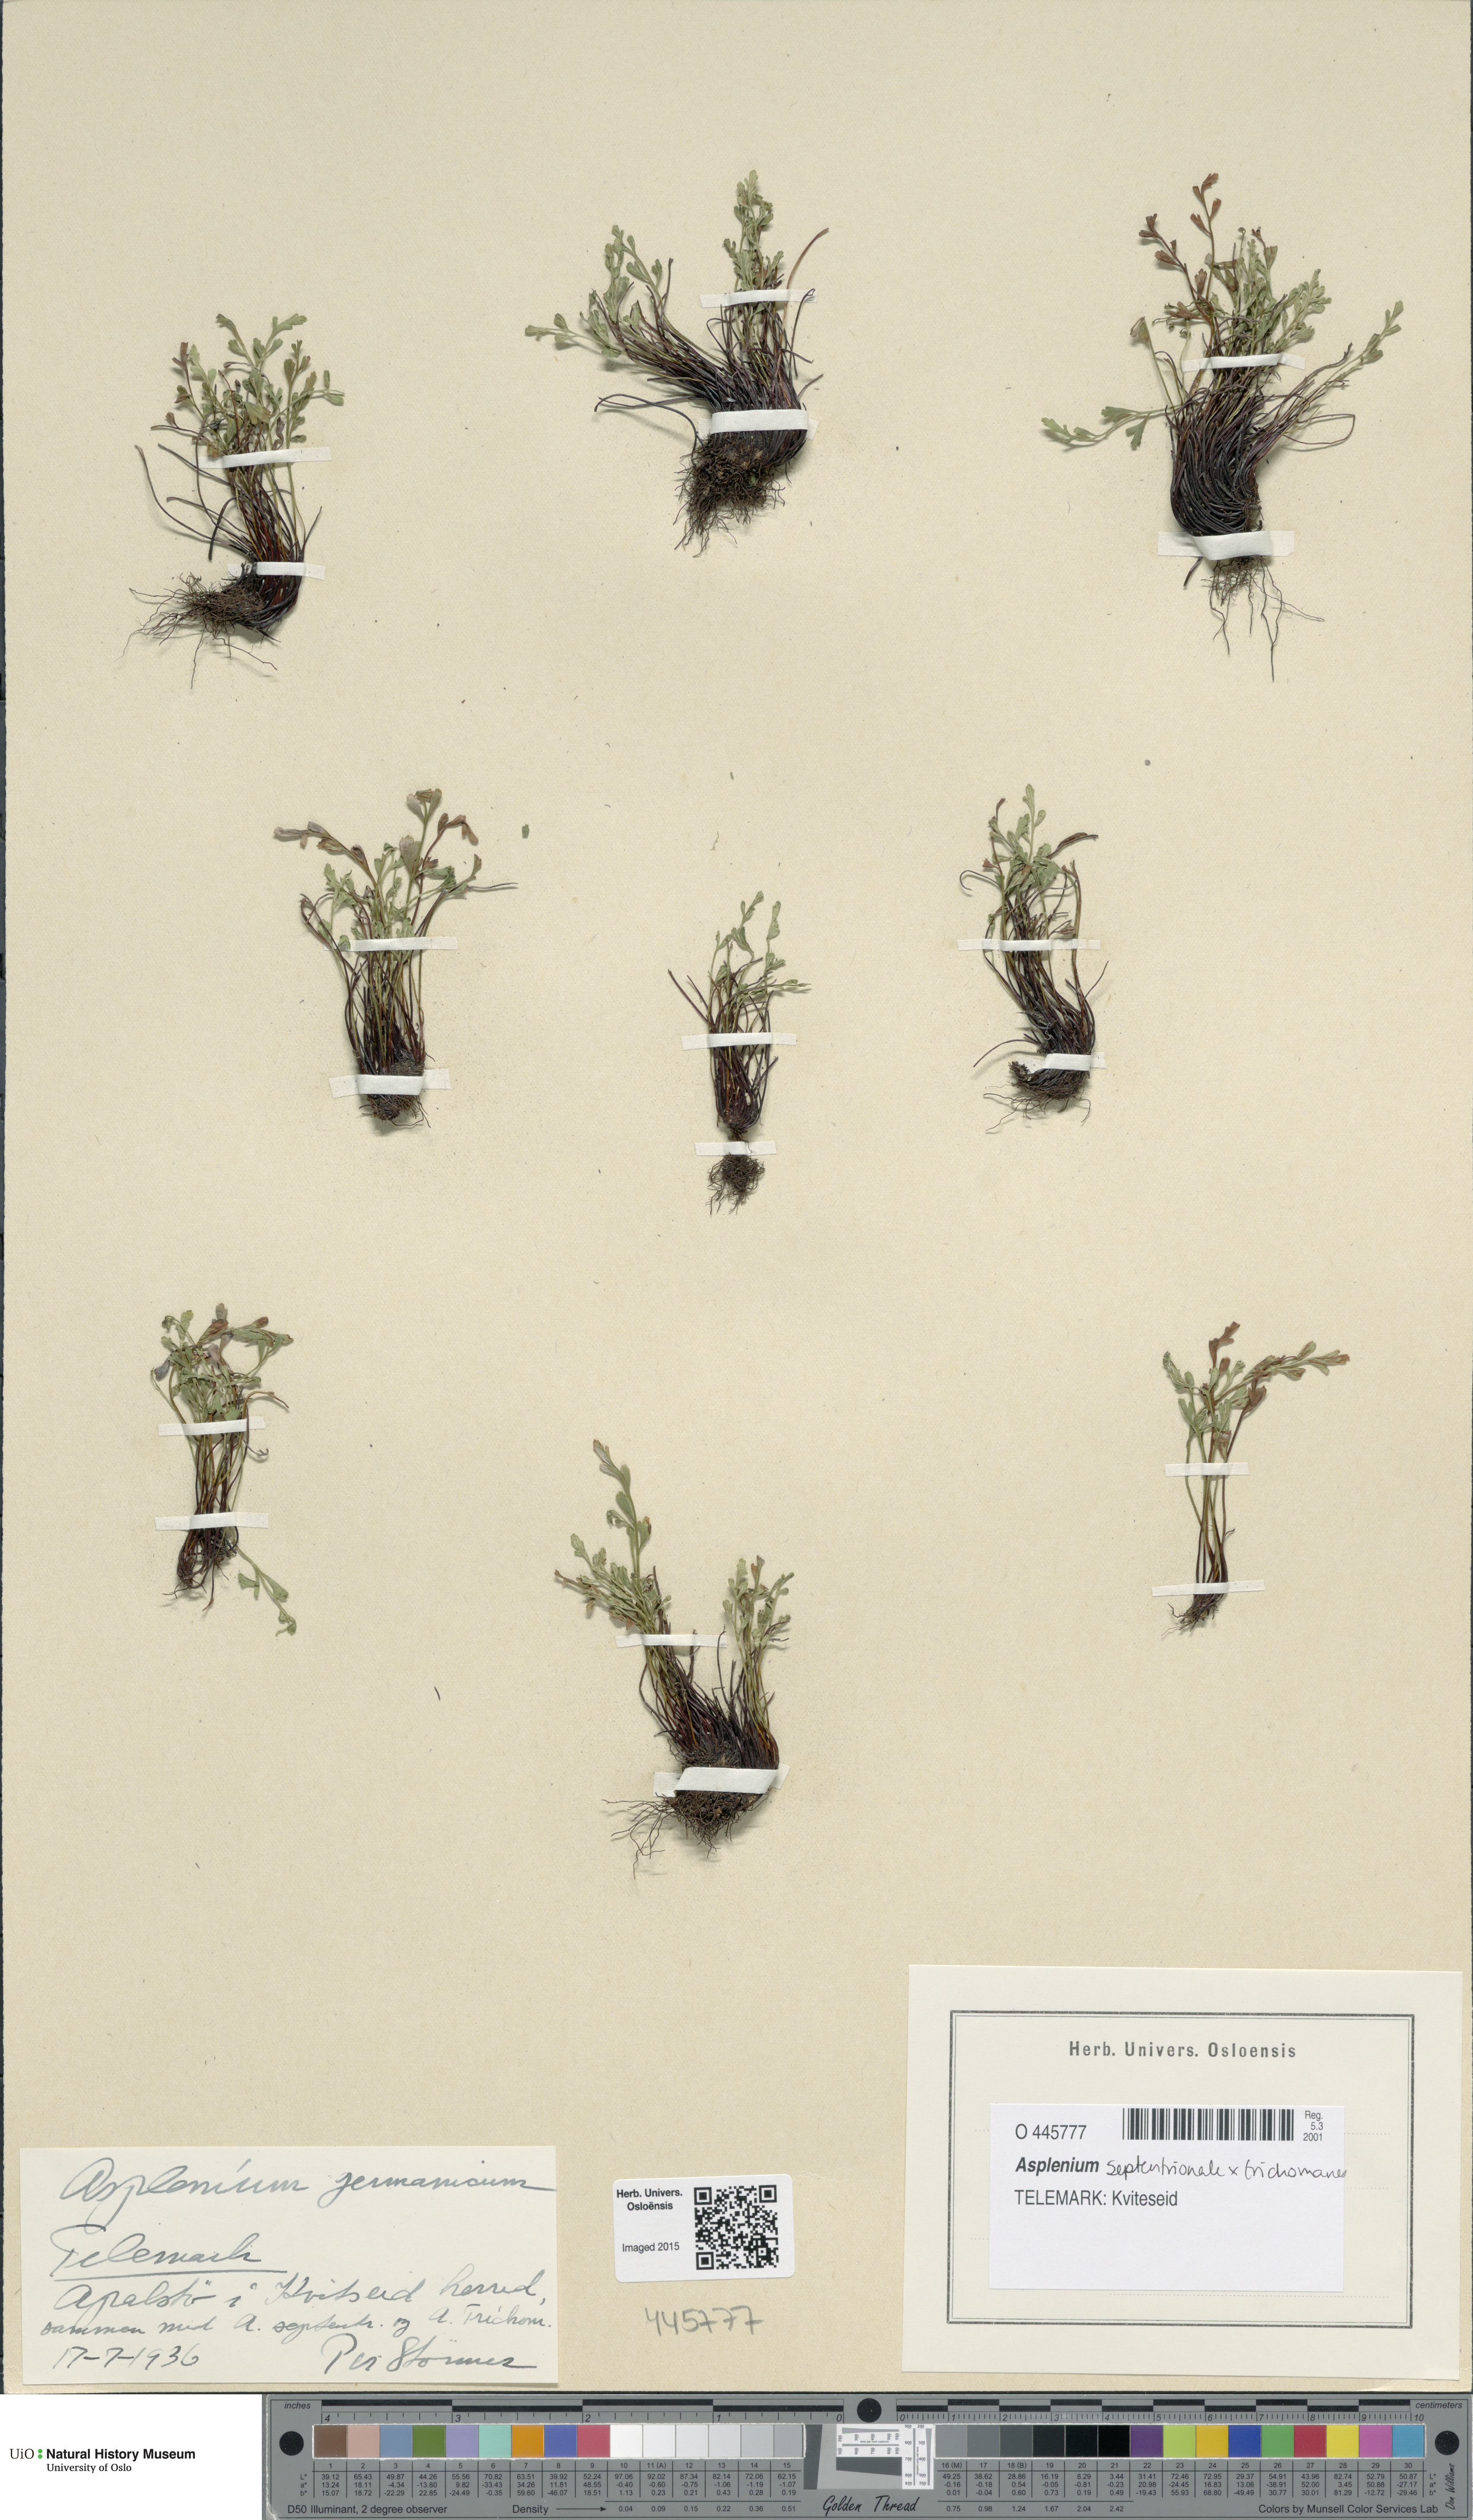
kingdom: Plantae
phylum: Tracheophyta
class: Polypodiopsida
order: Polypodiales
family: Aspleniaceae
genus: Asplenium
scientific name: Asplenium
